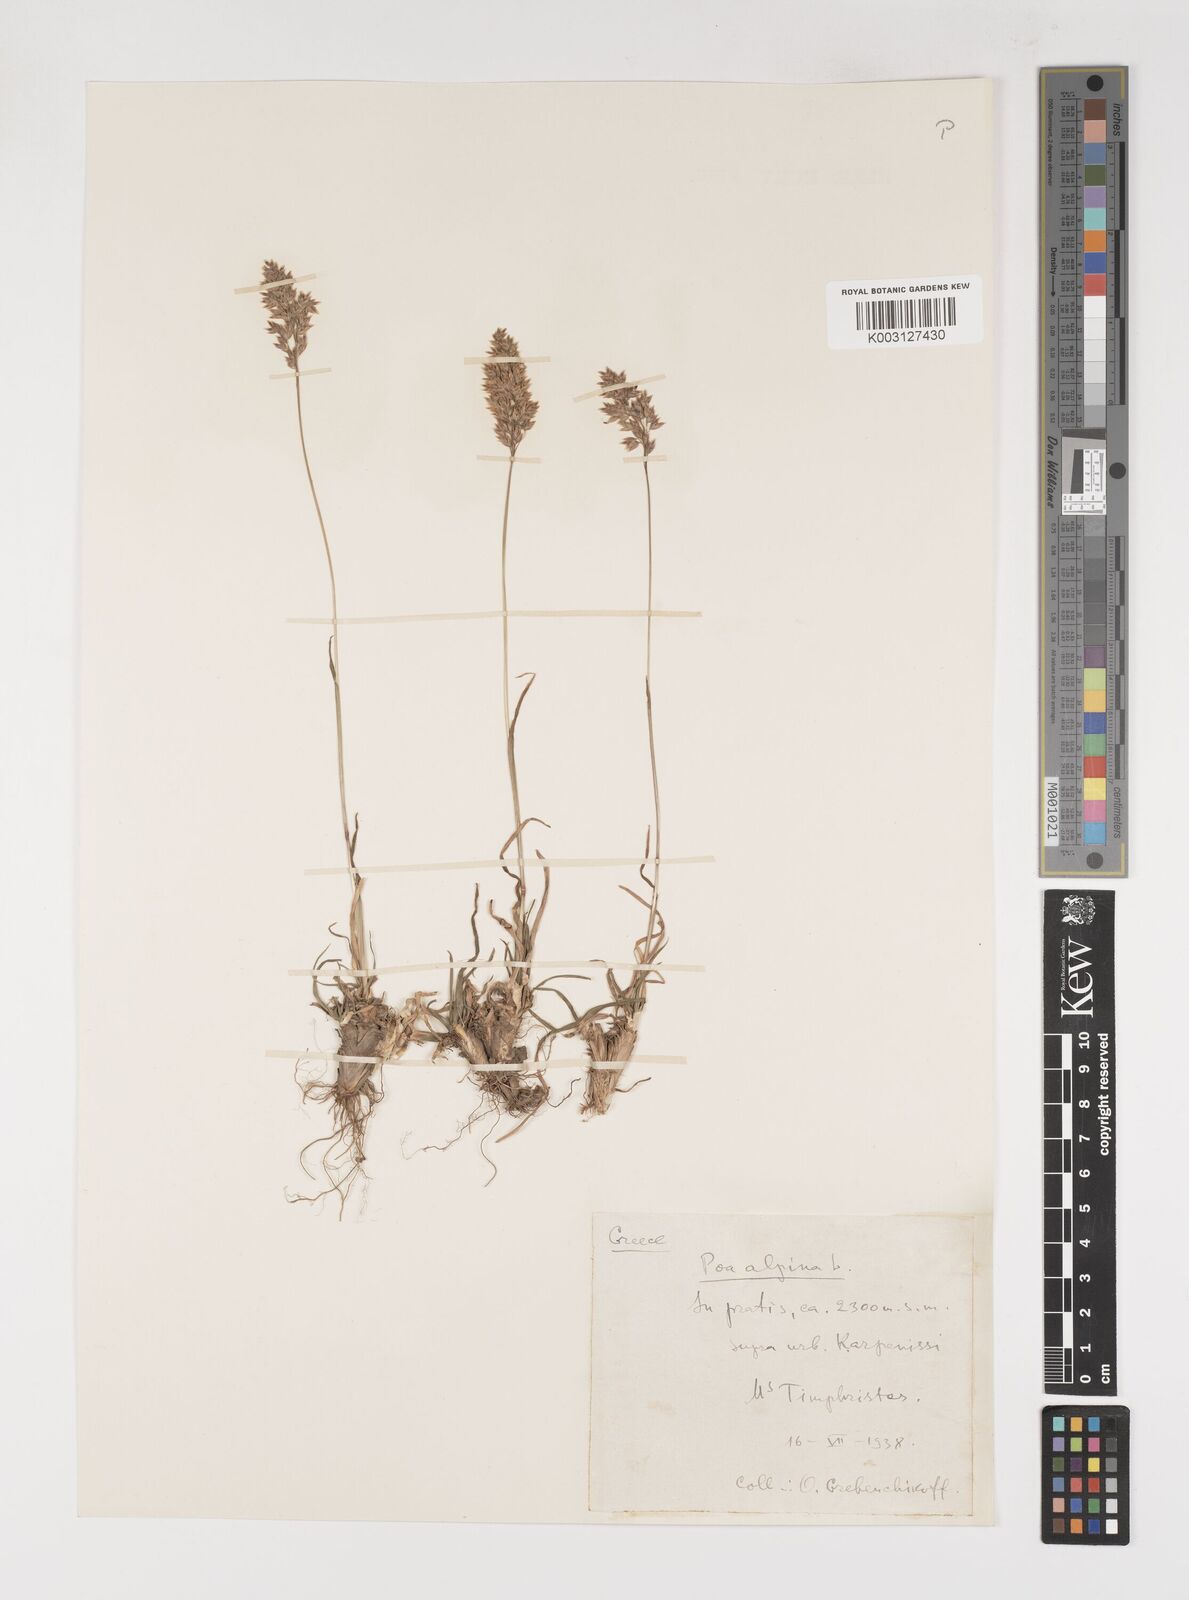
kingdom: Plantae
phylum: Tracheophyta
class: Liliopsida
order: Poales
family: Poaceae
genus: Poa
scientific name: Poa alpina
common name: Alpine bluegrass
